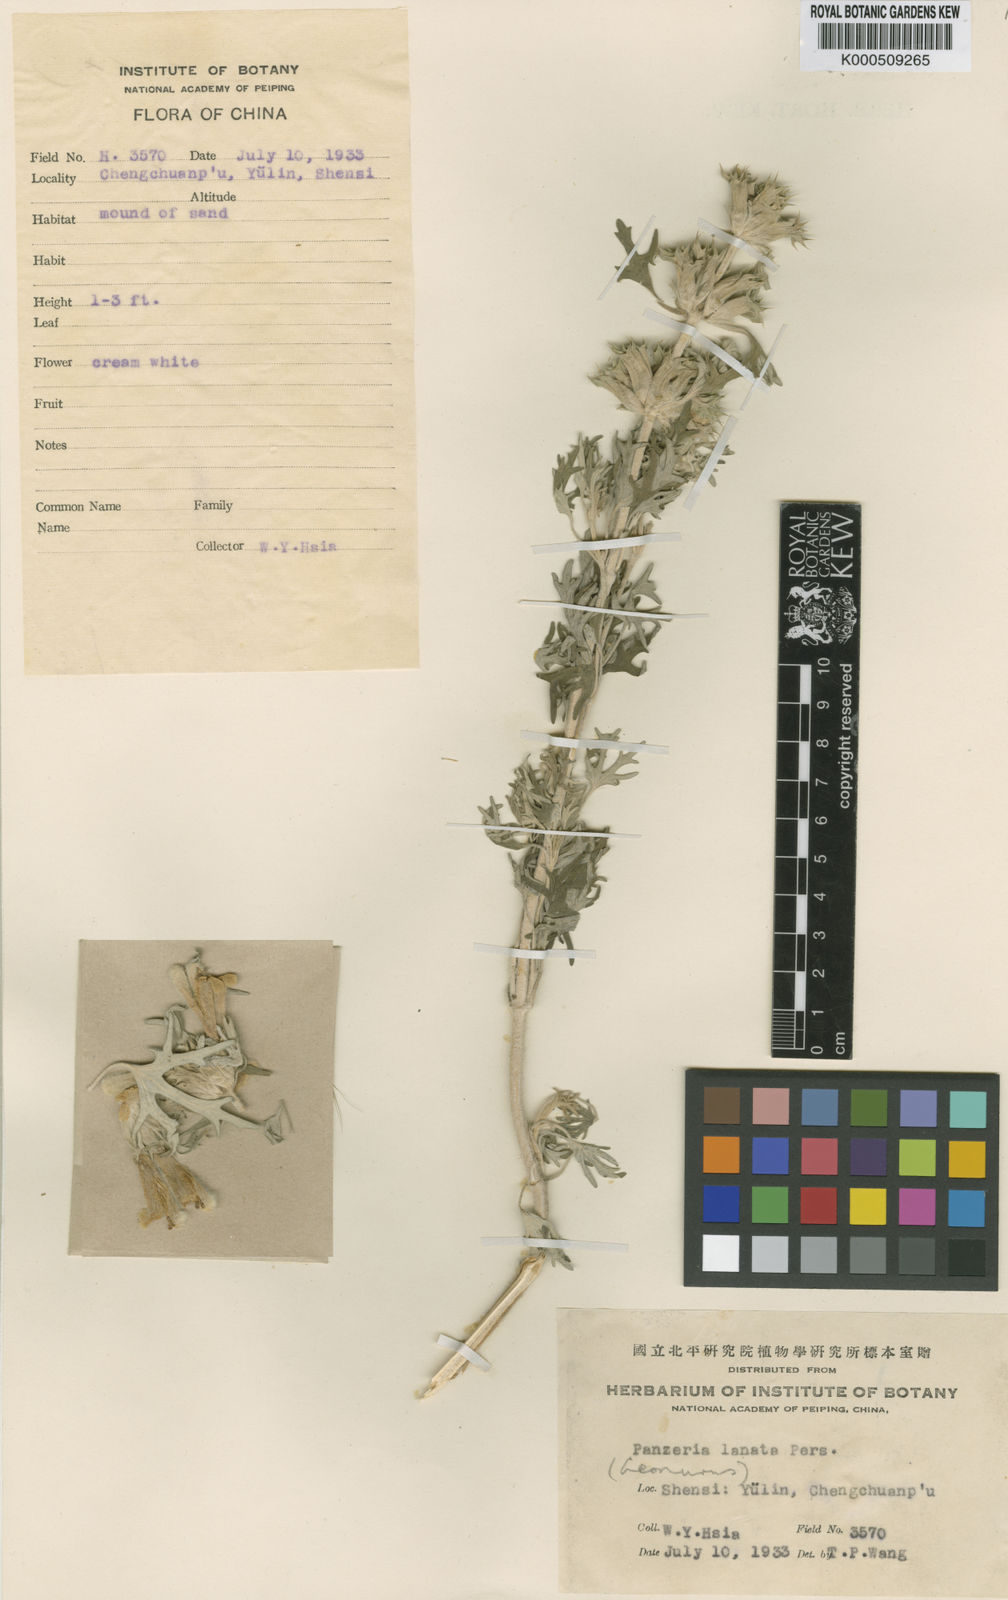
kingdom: Plantae
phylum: Tracheophyta
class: Magnoliopsida
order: Lamiales
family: Lamiaceae
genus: Panzerina
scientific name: Panzerina
